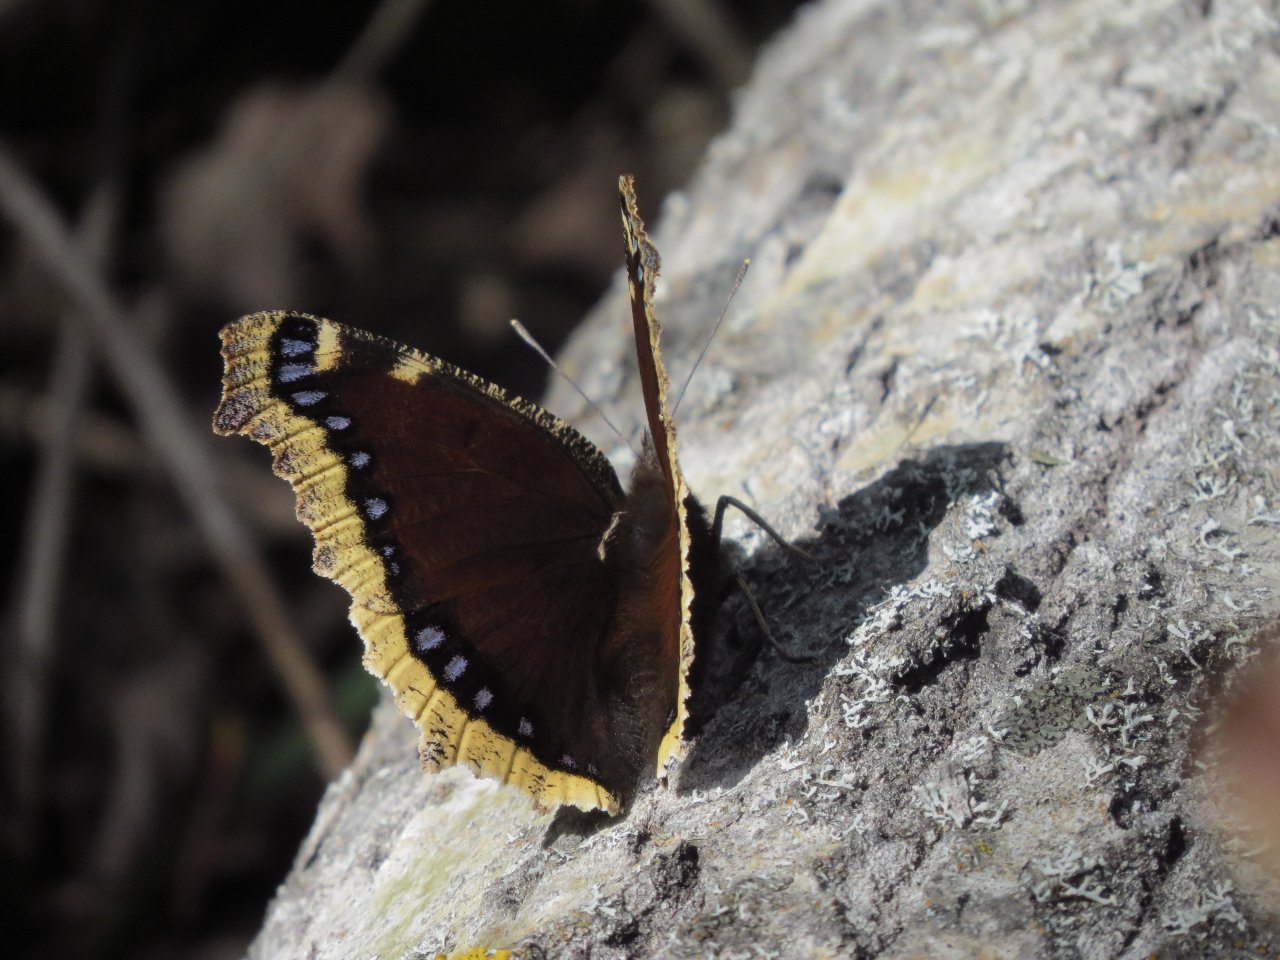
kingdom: Animalia
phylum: Arthropoda
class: Insecta
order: Lepidoptera
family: Nymphalidae
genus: Nymphalis
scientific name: Nymphalis antiopa
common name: Mourning Cloak
